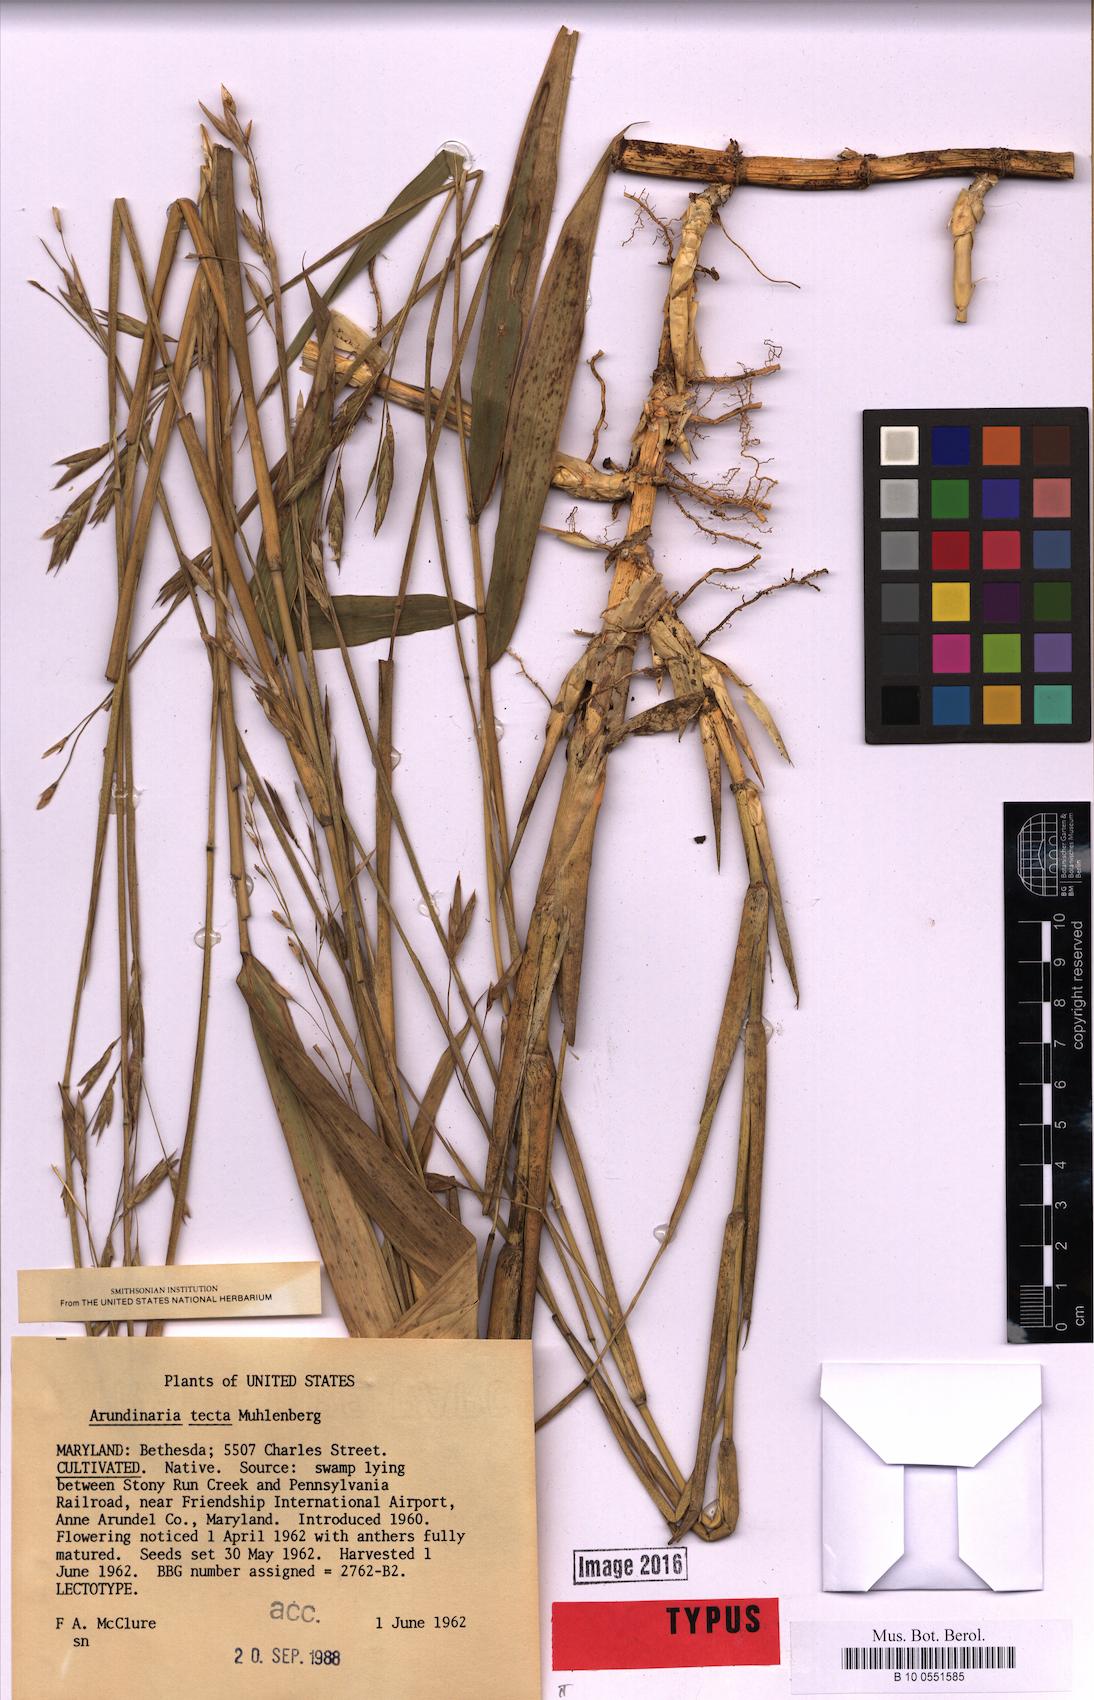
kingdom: Plantae
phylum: Tracheophyta
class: Liliopsida
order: Poales
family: Poaceae
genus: Arundinaria
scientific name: Arundinaria tecta
